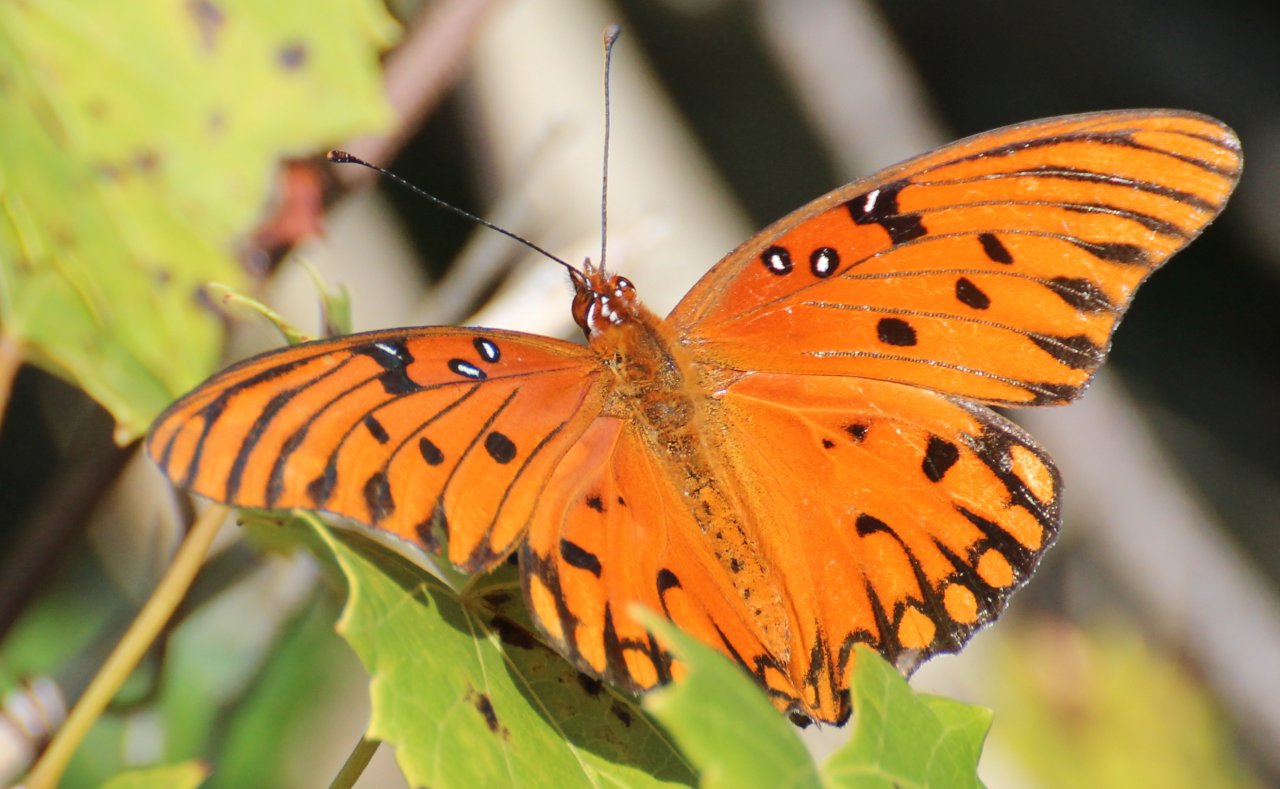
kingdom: Animalia
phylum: Arthropoda
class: Insecta
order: Lepidoptera
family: Nymphalidae
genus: Dione
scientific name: Dione vanillae
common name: Gulf Fritillary
